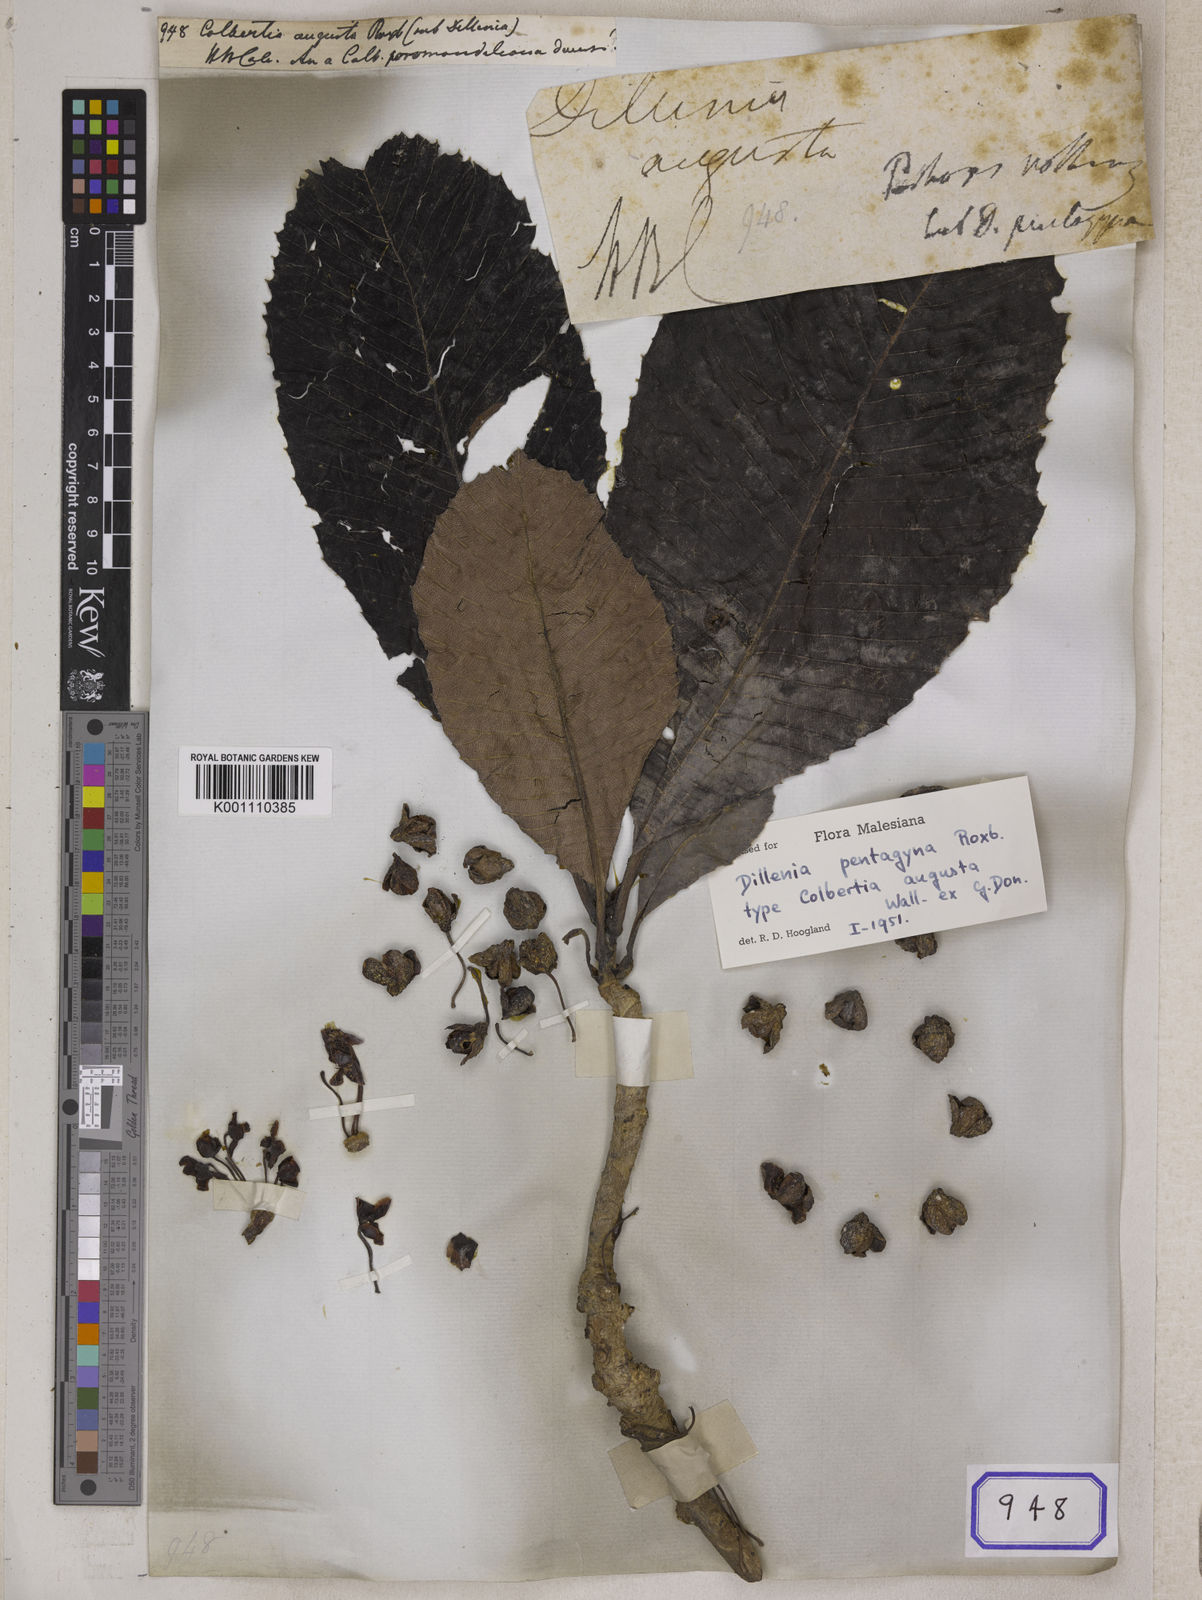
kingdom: Plantae
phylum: Tracheophyta
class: Magnoliopsida
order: Dilleniales
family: Dilleniaceae
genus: Dillenia
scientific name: Dillenia
